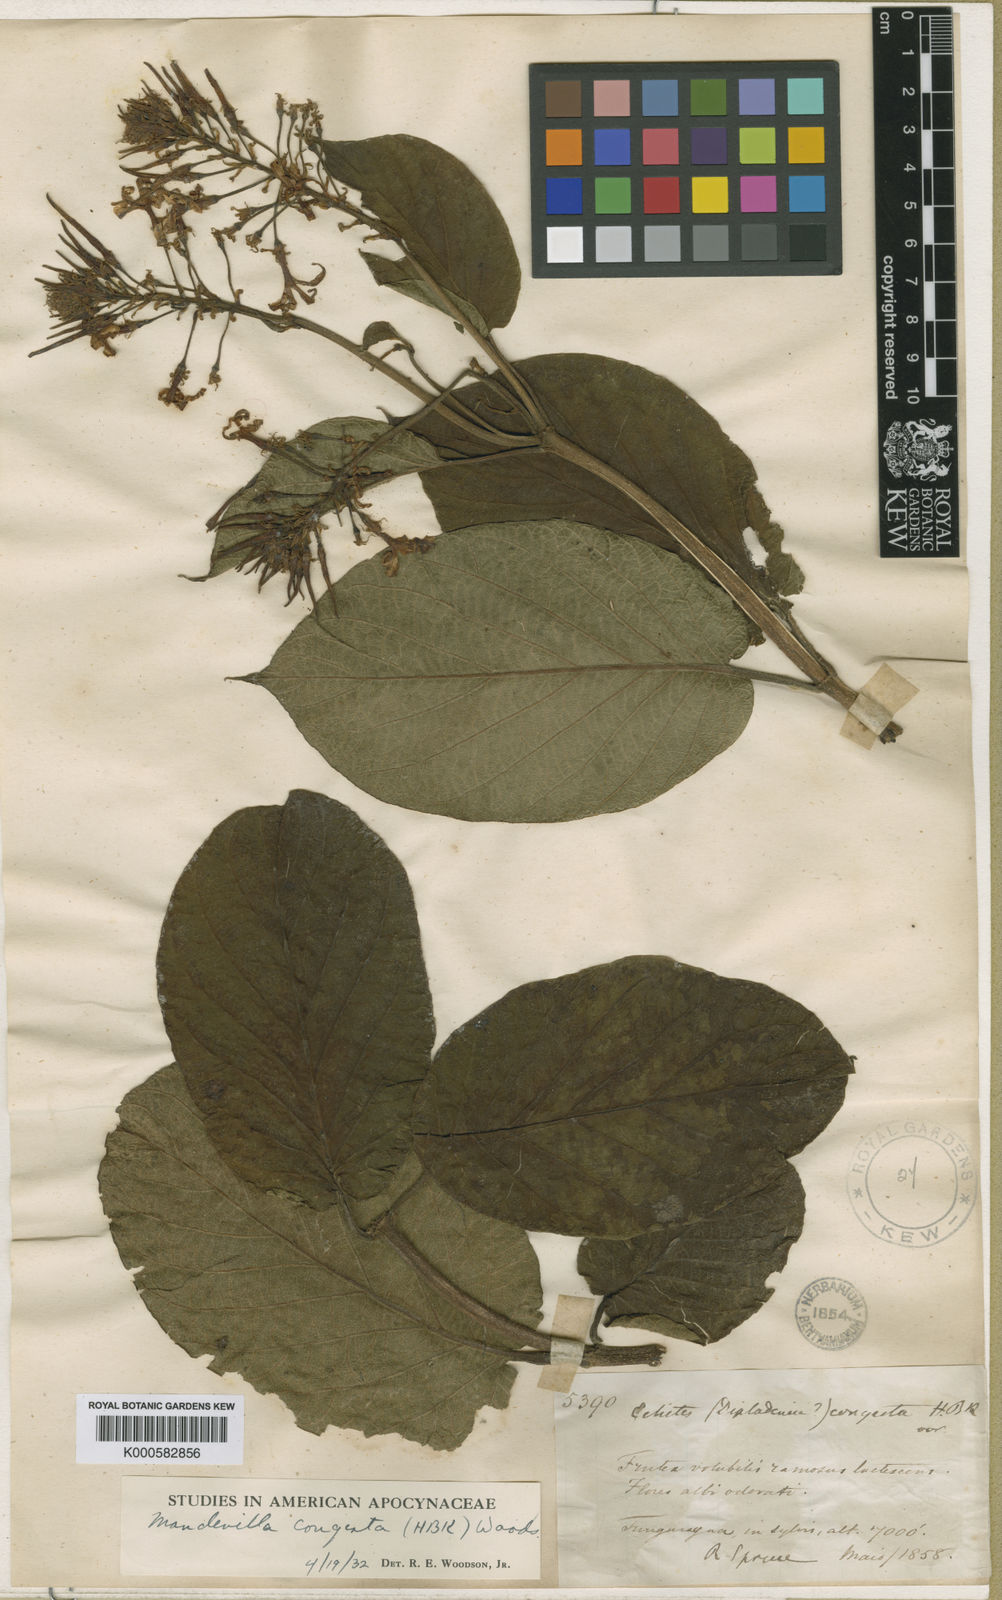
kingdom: Plantae
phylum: Tracheophyta
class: Magnoliopsida
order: Gentianales
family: Apocynaceae
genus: Mandevilla
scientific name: Mandevilla congesta
